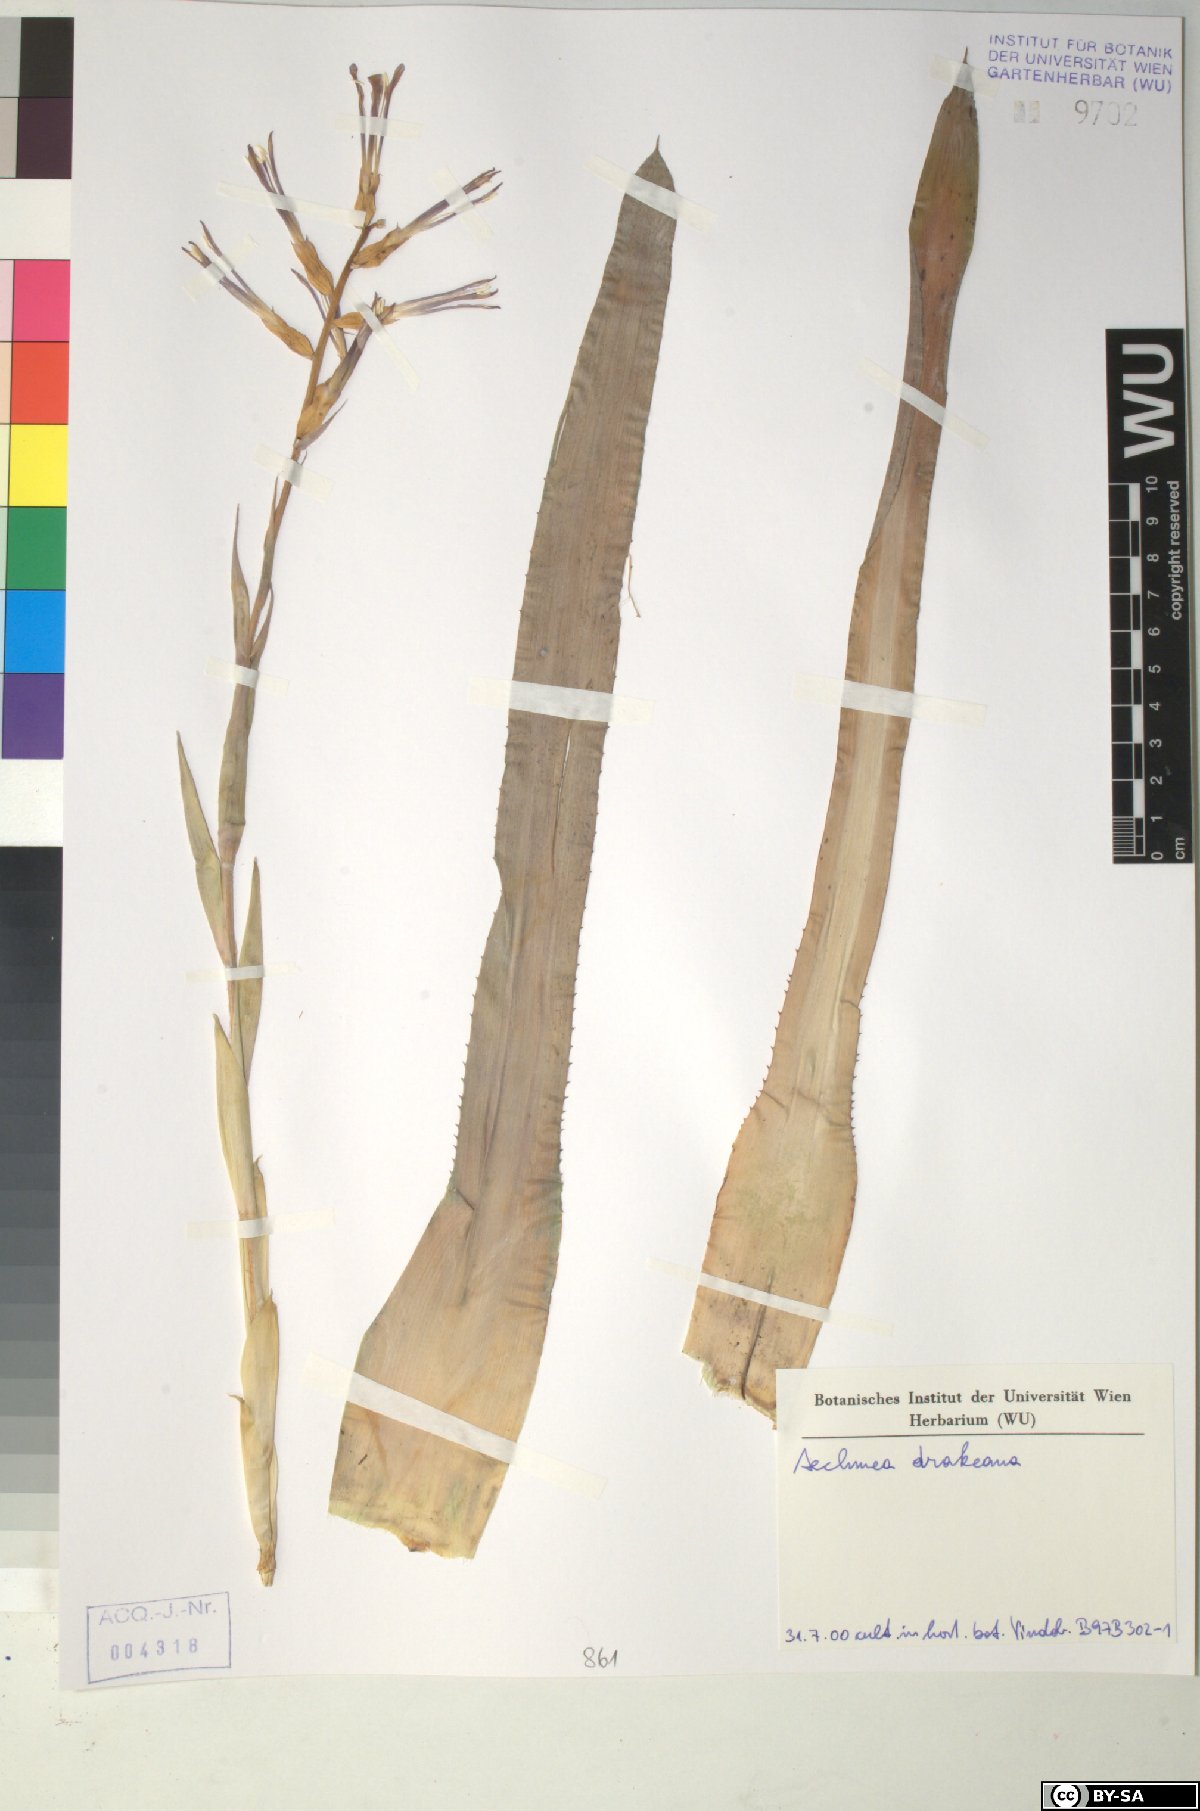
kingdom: Plantae
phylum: Tracheophyta
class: Magnoliopsida
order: Cucurbitales
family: Cucurbitaceae
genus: Kedrostis
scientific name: Kedrostis
